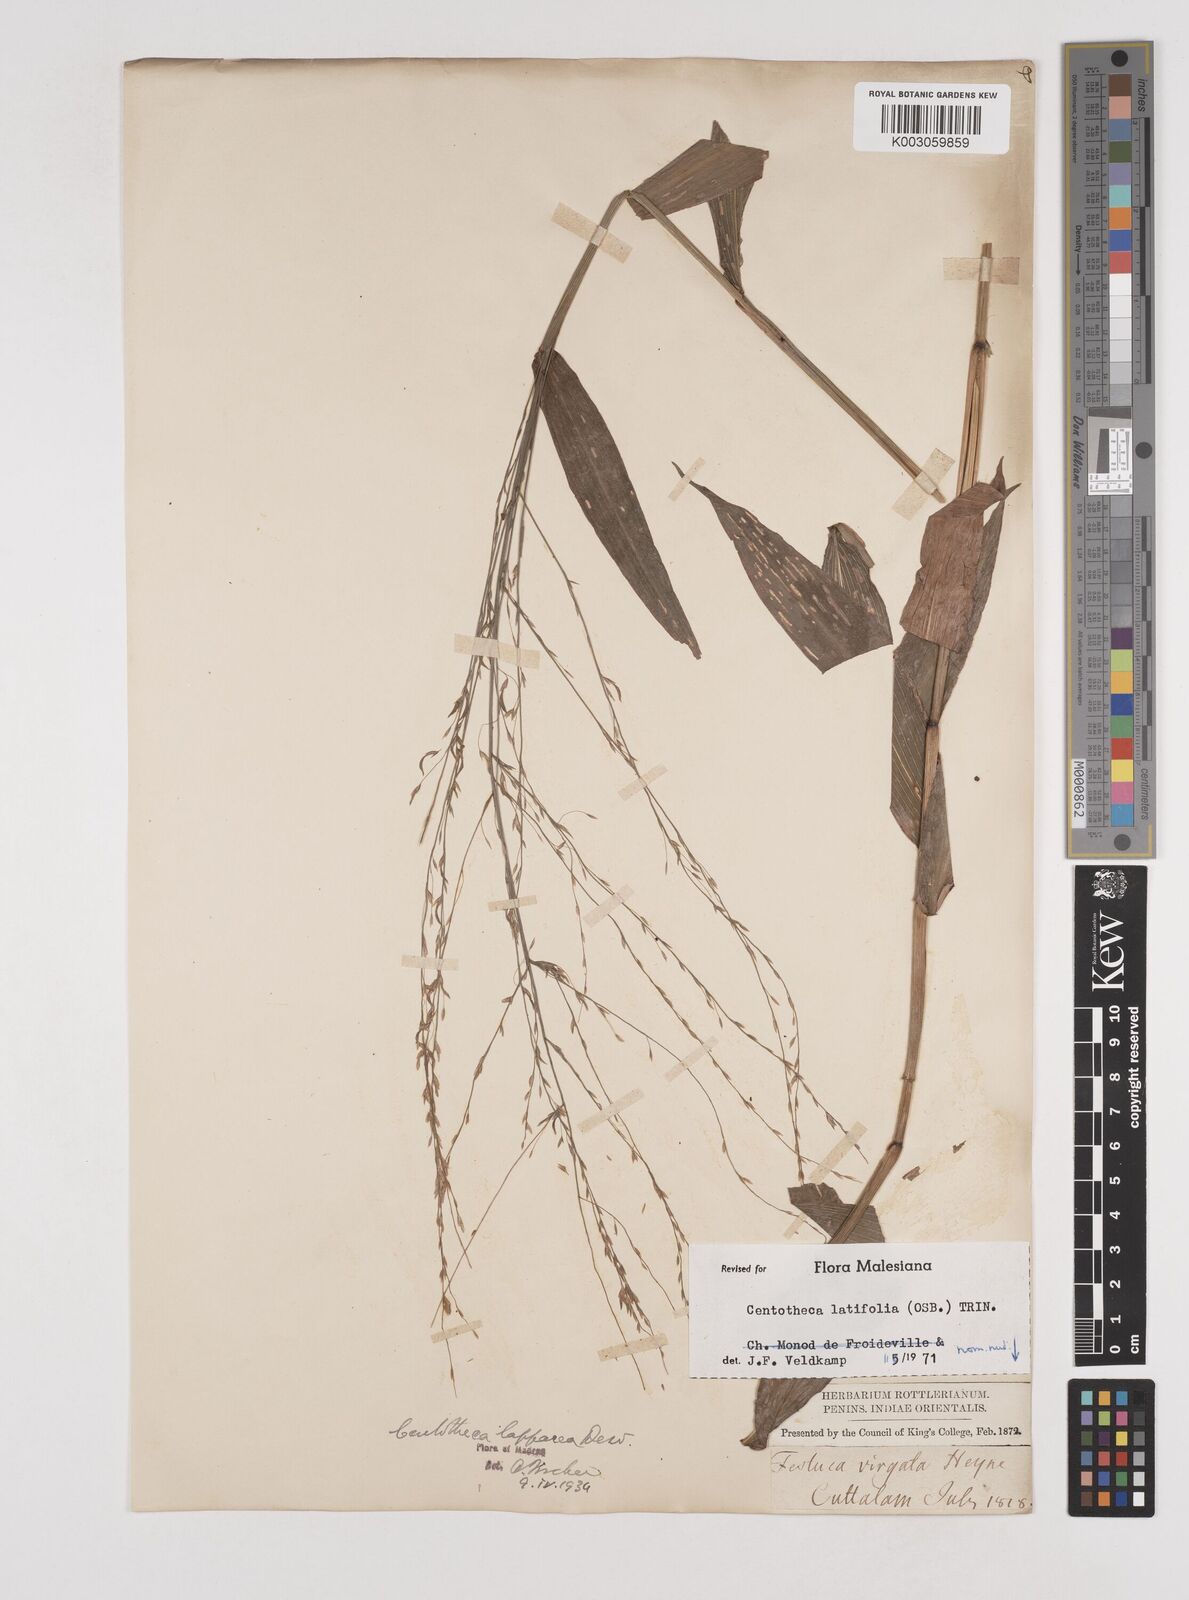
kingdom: Plantae
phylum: Tracheophyta
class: Liliopsida
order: Poales
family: Poaceae
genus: Centotheca
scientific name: Centotheca lappacea
